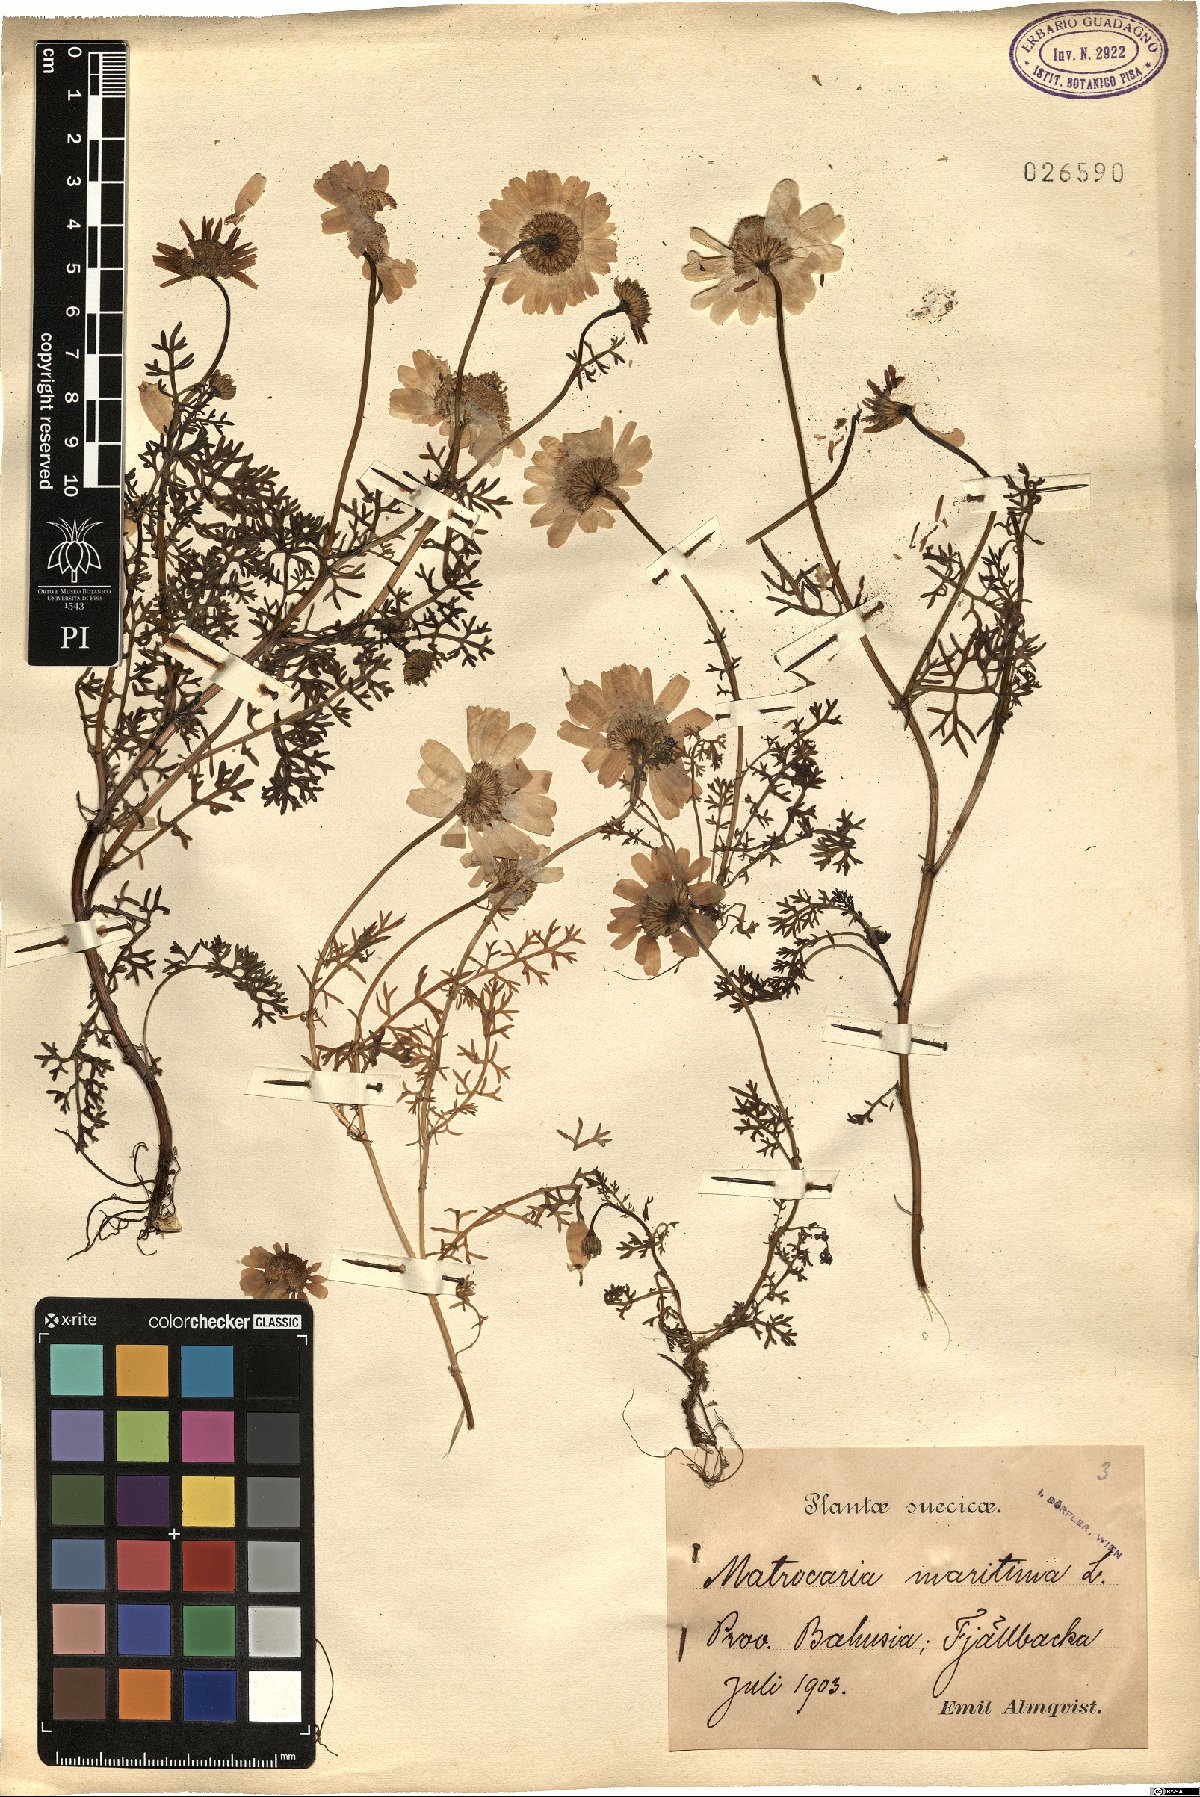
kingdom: Plantae
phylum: Tracheophyta
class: Magnoliopsida
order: Asterales
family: Asteraceae
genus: Tripleurospermum
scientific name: Tripleurospermum maritimum
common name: Sea mayweed
